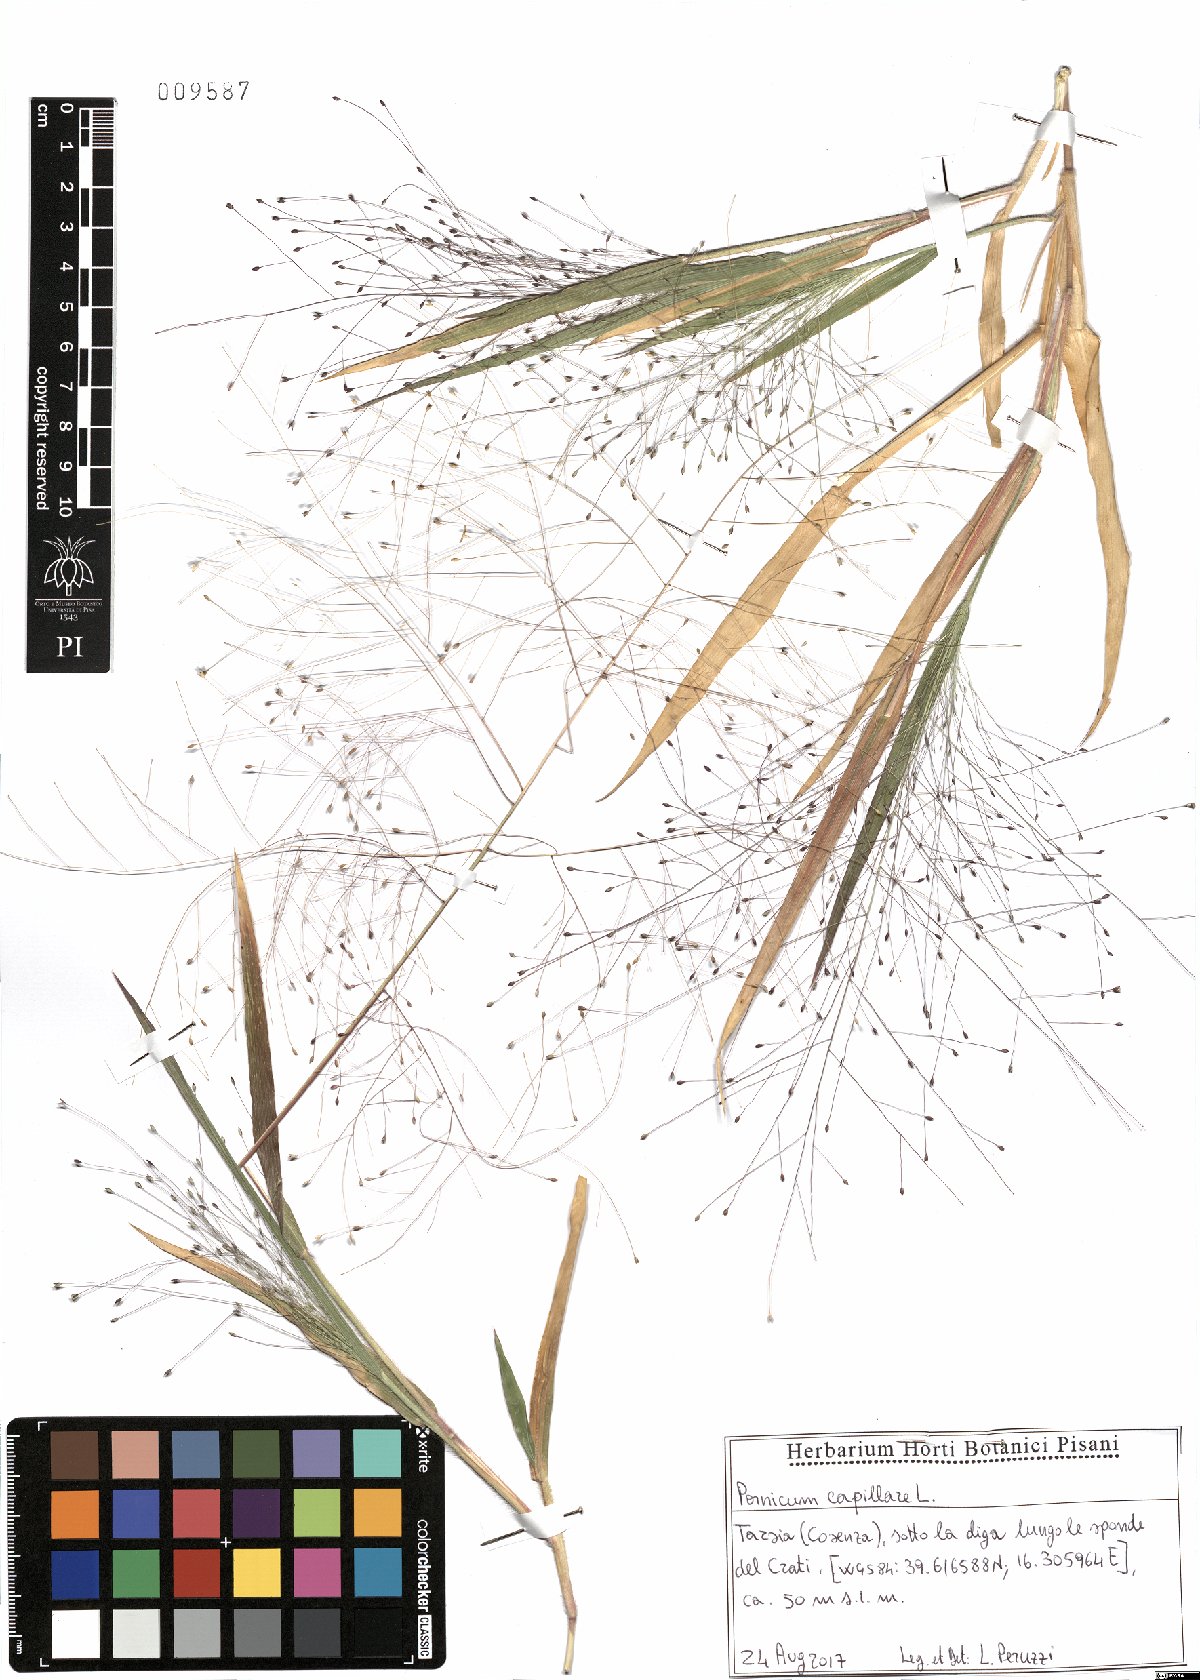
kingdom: Plantae
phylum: Tracheophyta
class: Liliopsida
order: Poales
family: Poaceae
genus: Panicum
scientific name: Panicum capillare
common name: Witch-grass
